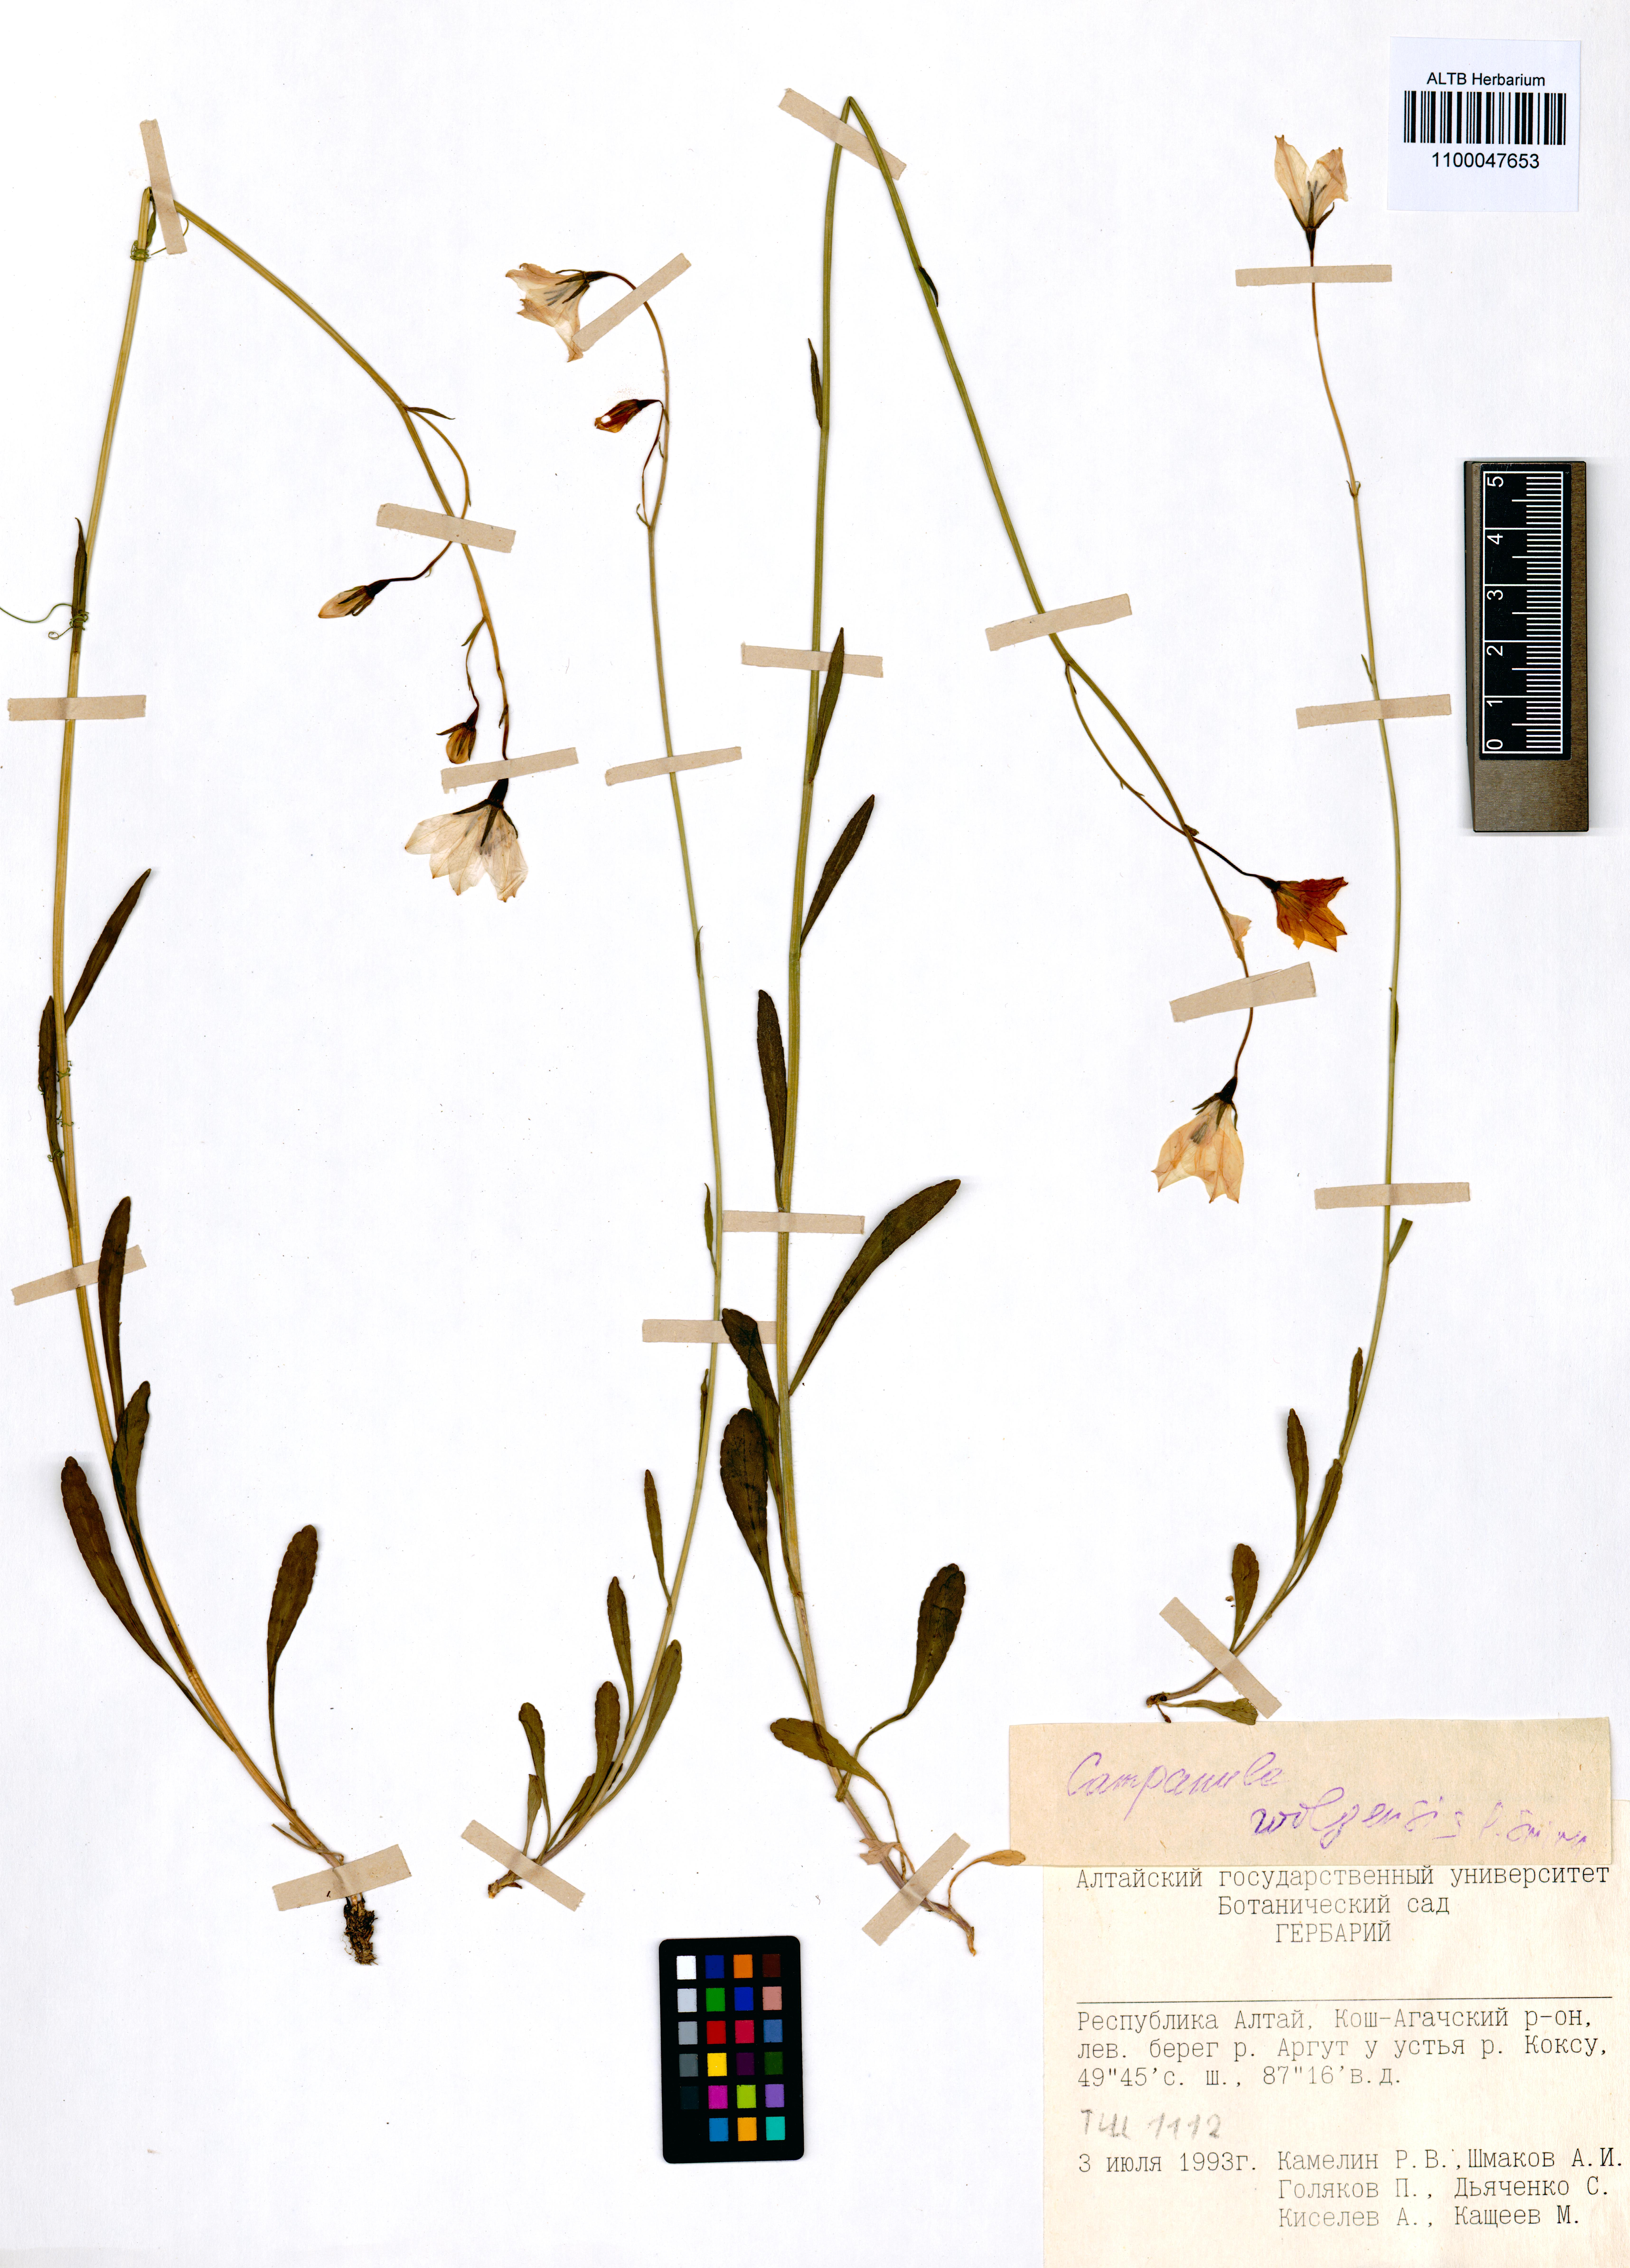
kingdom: Plantae
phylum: Tracheophyta
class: Magnoliopsida
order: Asterales
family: Campanulaceae
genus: Campanula
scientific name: Campanula stevenii
